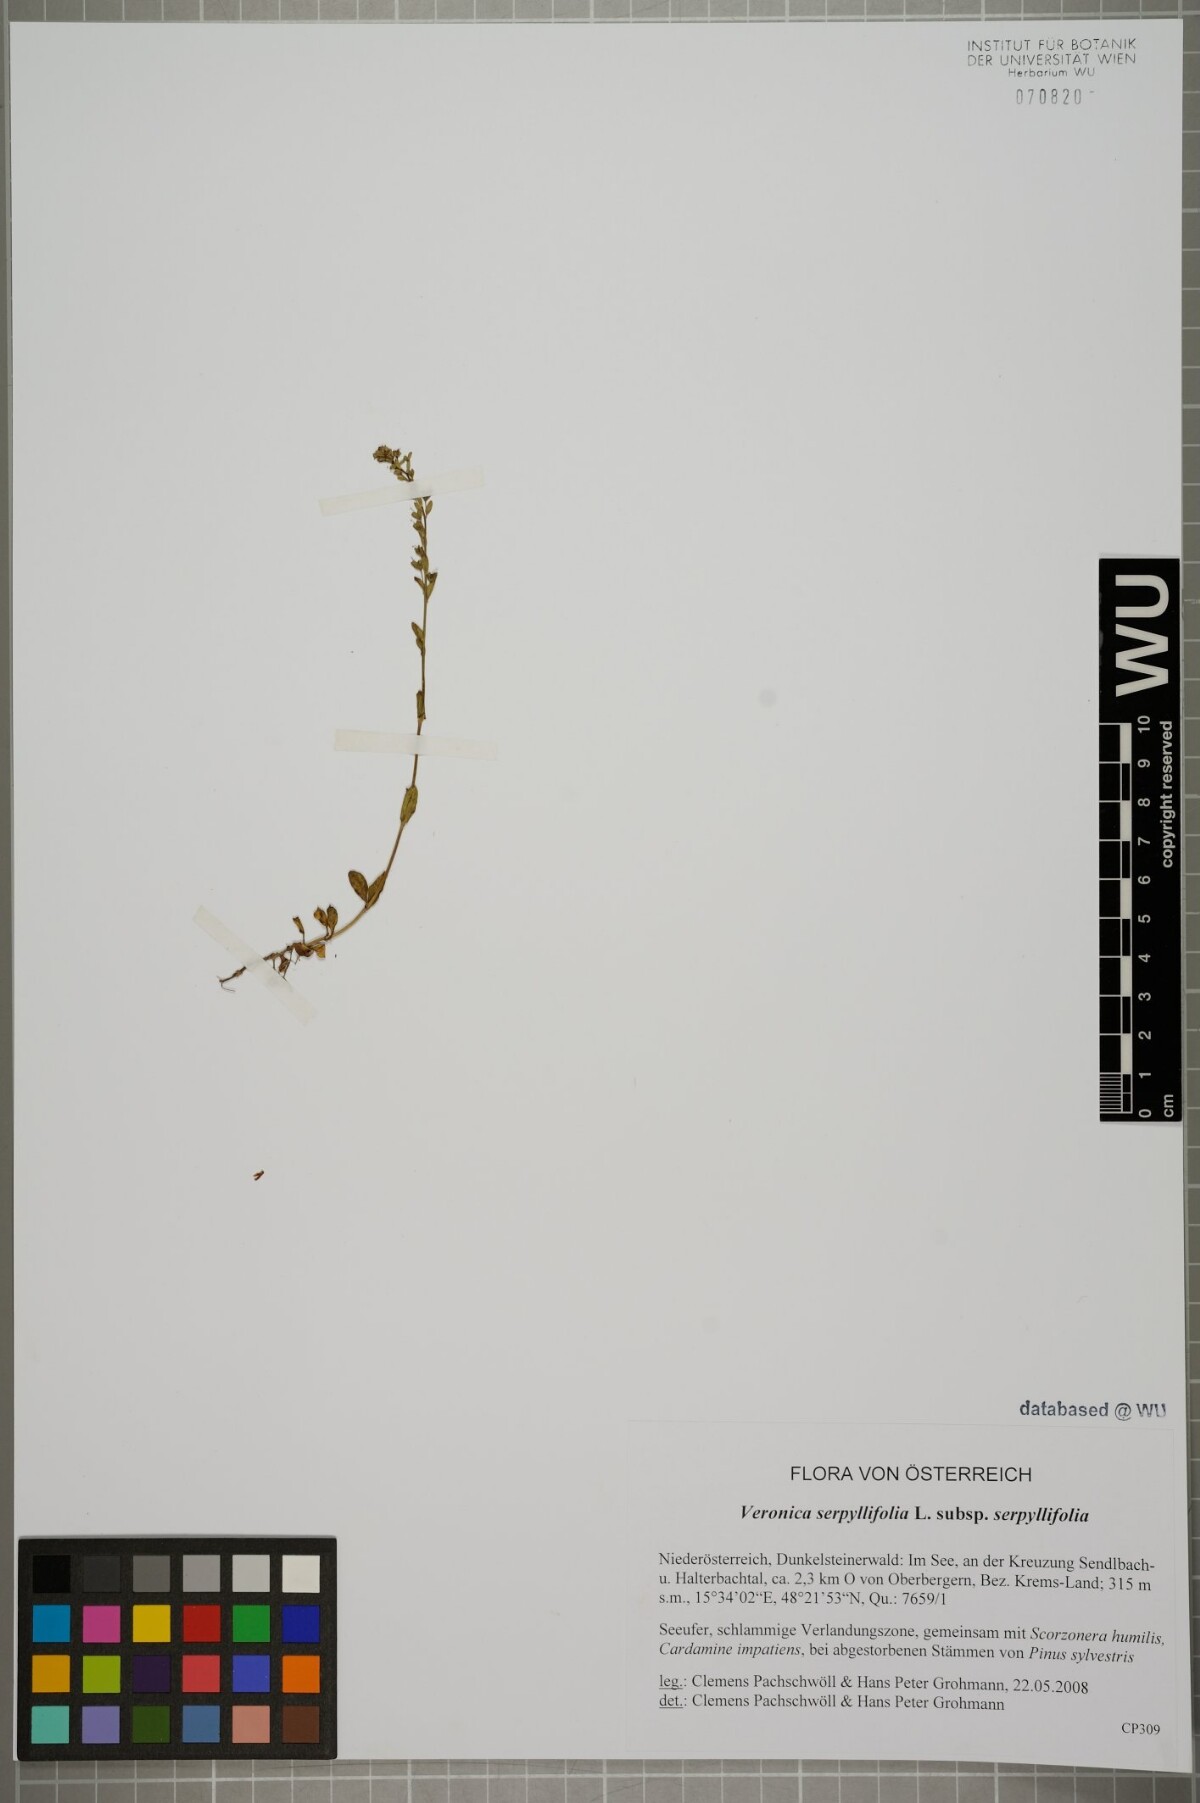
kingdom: Plantae
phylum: Tracheophyta
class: Magnoliopsida
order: Lamiales
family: Plantaginaceae
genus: Veronica
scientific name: Veronica serpyllifolia
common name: Thyme-leaved speedwell
